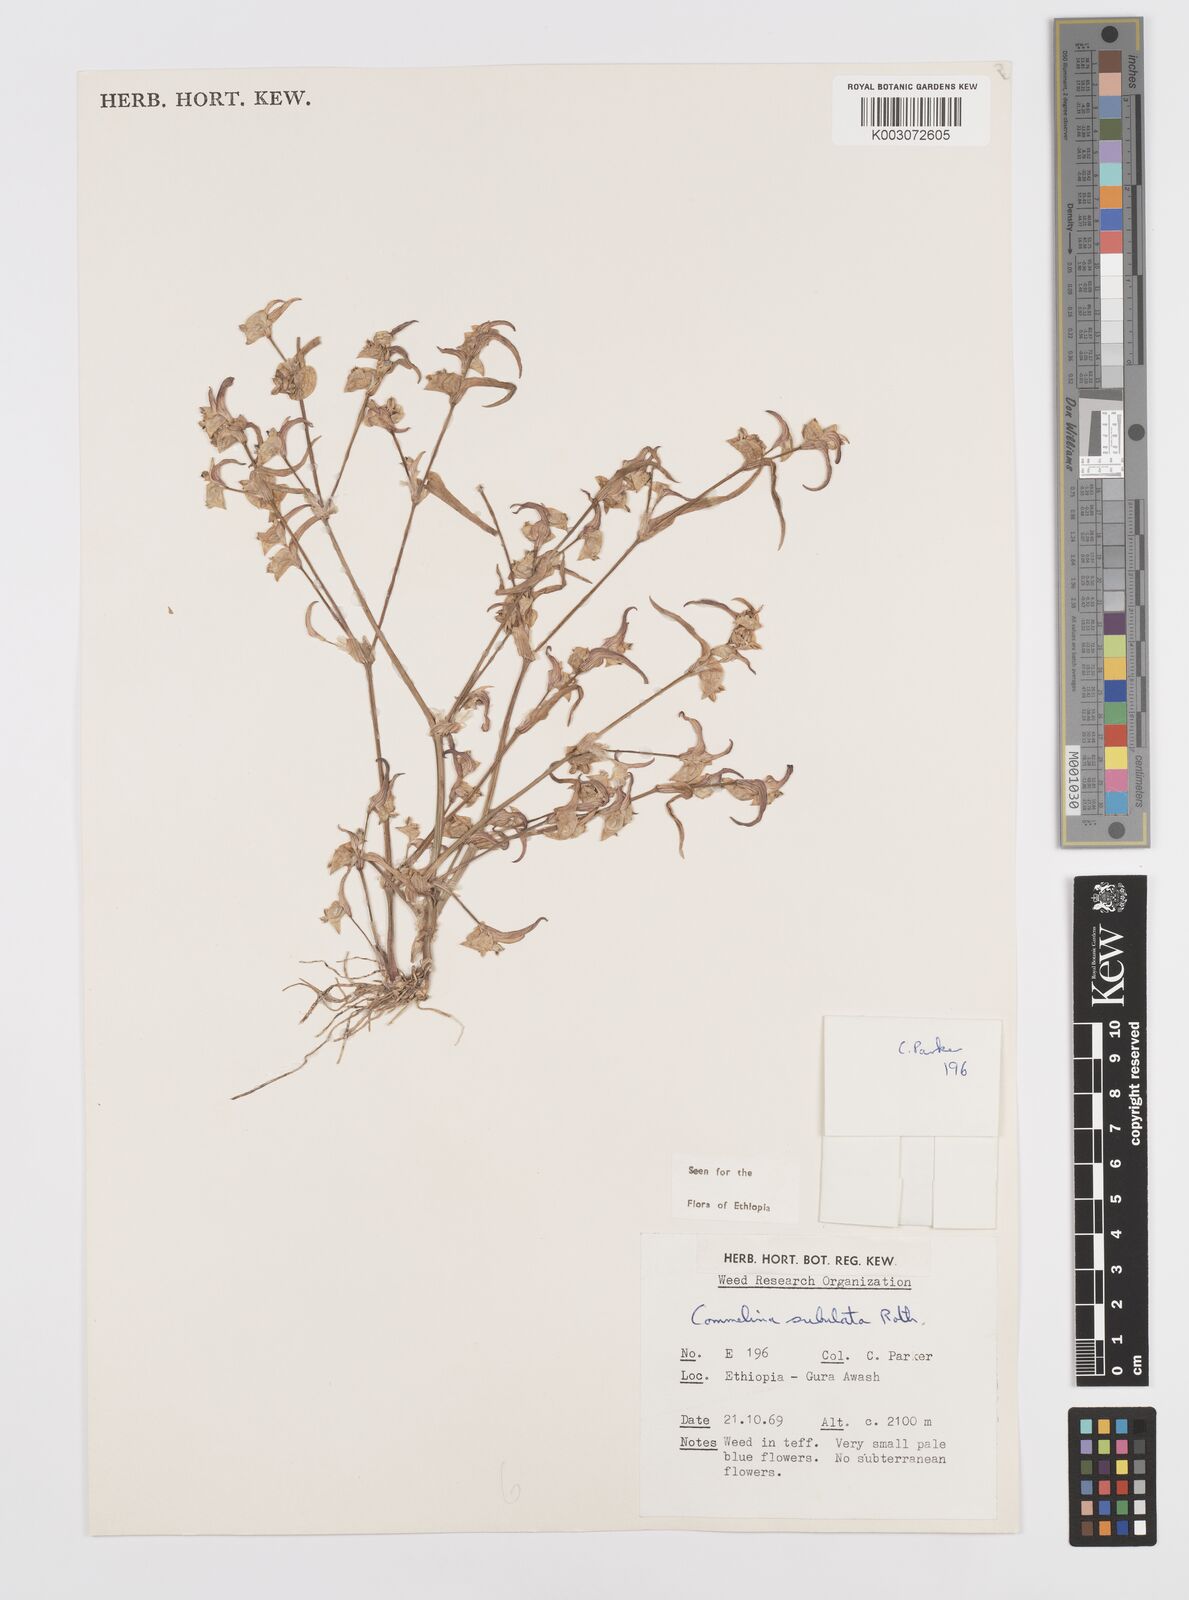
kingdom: Plantae
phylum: Tracheophyta
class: Liliopsida
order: Commelinales
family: Commelinaceae
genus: Commelina
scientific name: Commelina subulata
